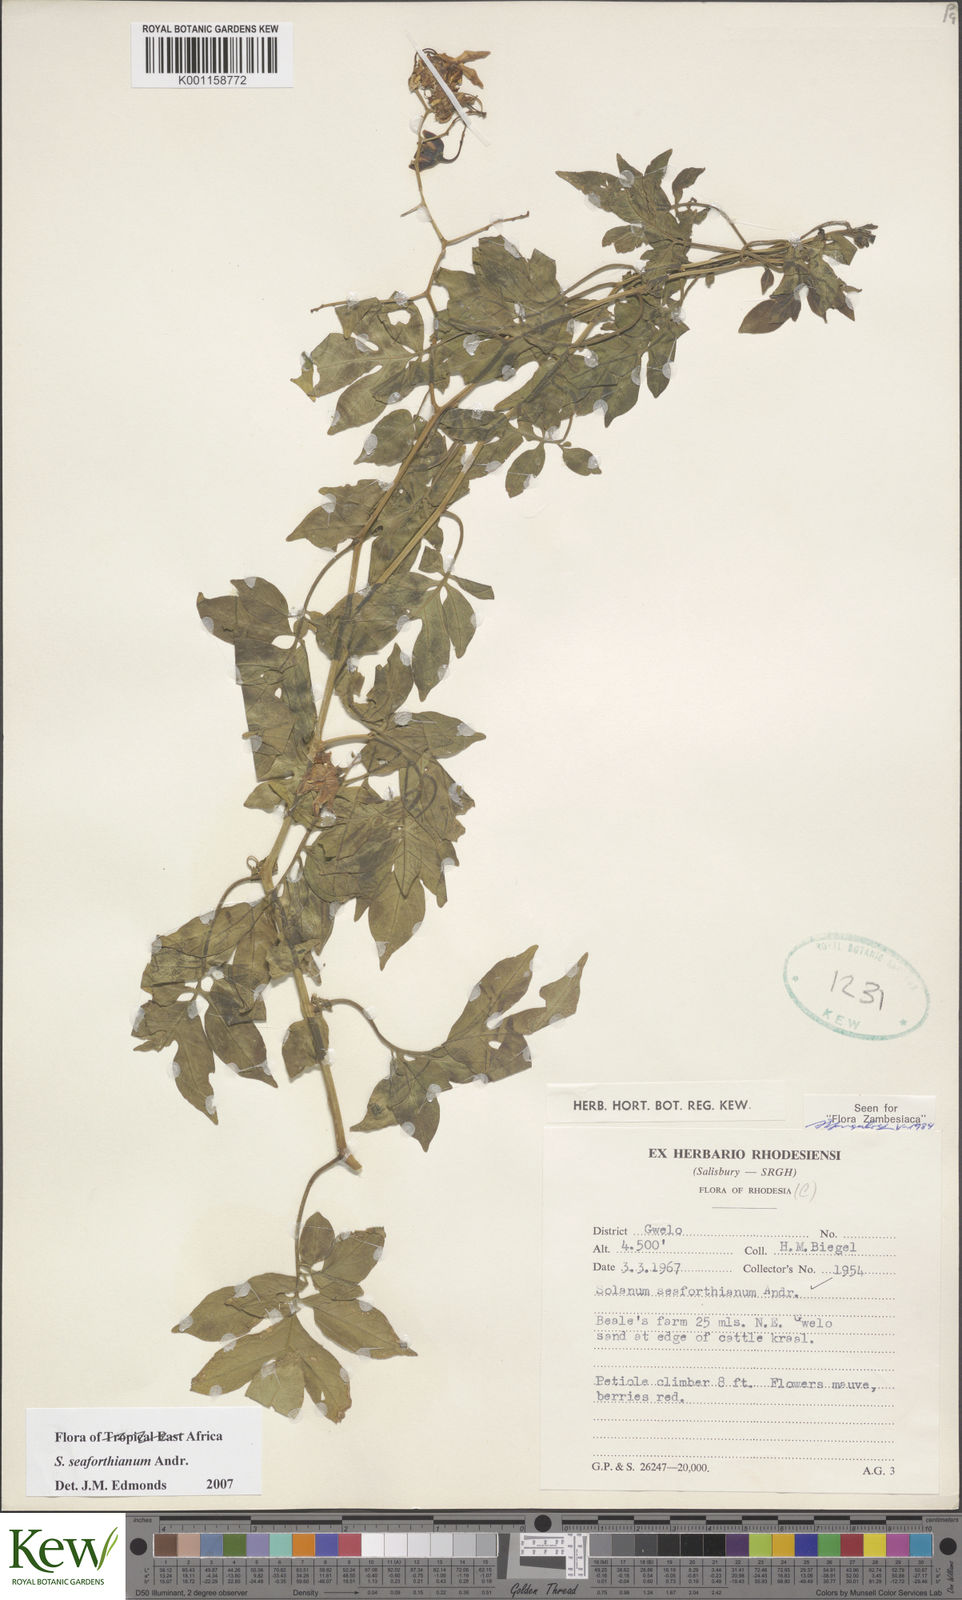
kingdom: Plantae
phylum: Tracheophyta
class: Magnoliopsida
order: Solanales
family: Solanaceae
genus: Solanum
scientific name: Solanum seaforthianum
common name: Brazilian nightshade
